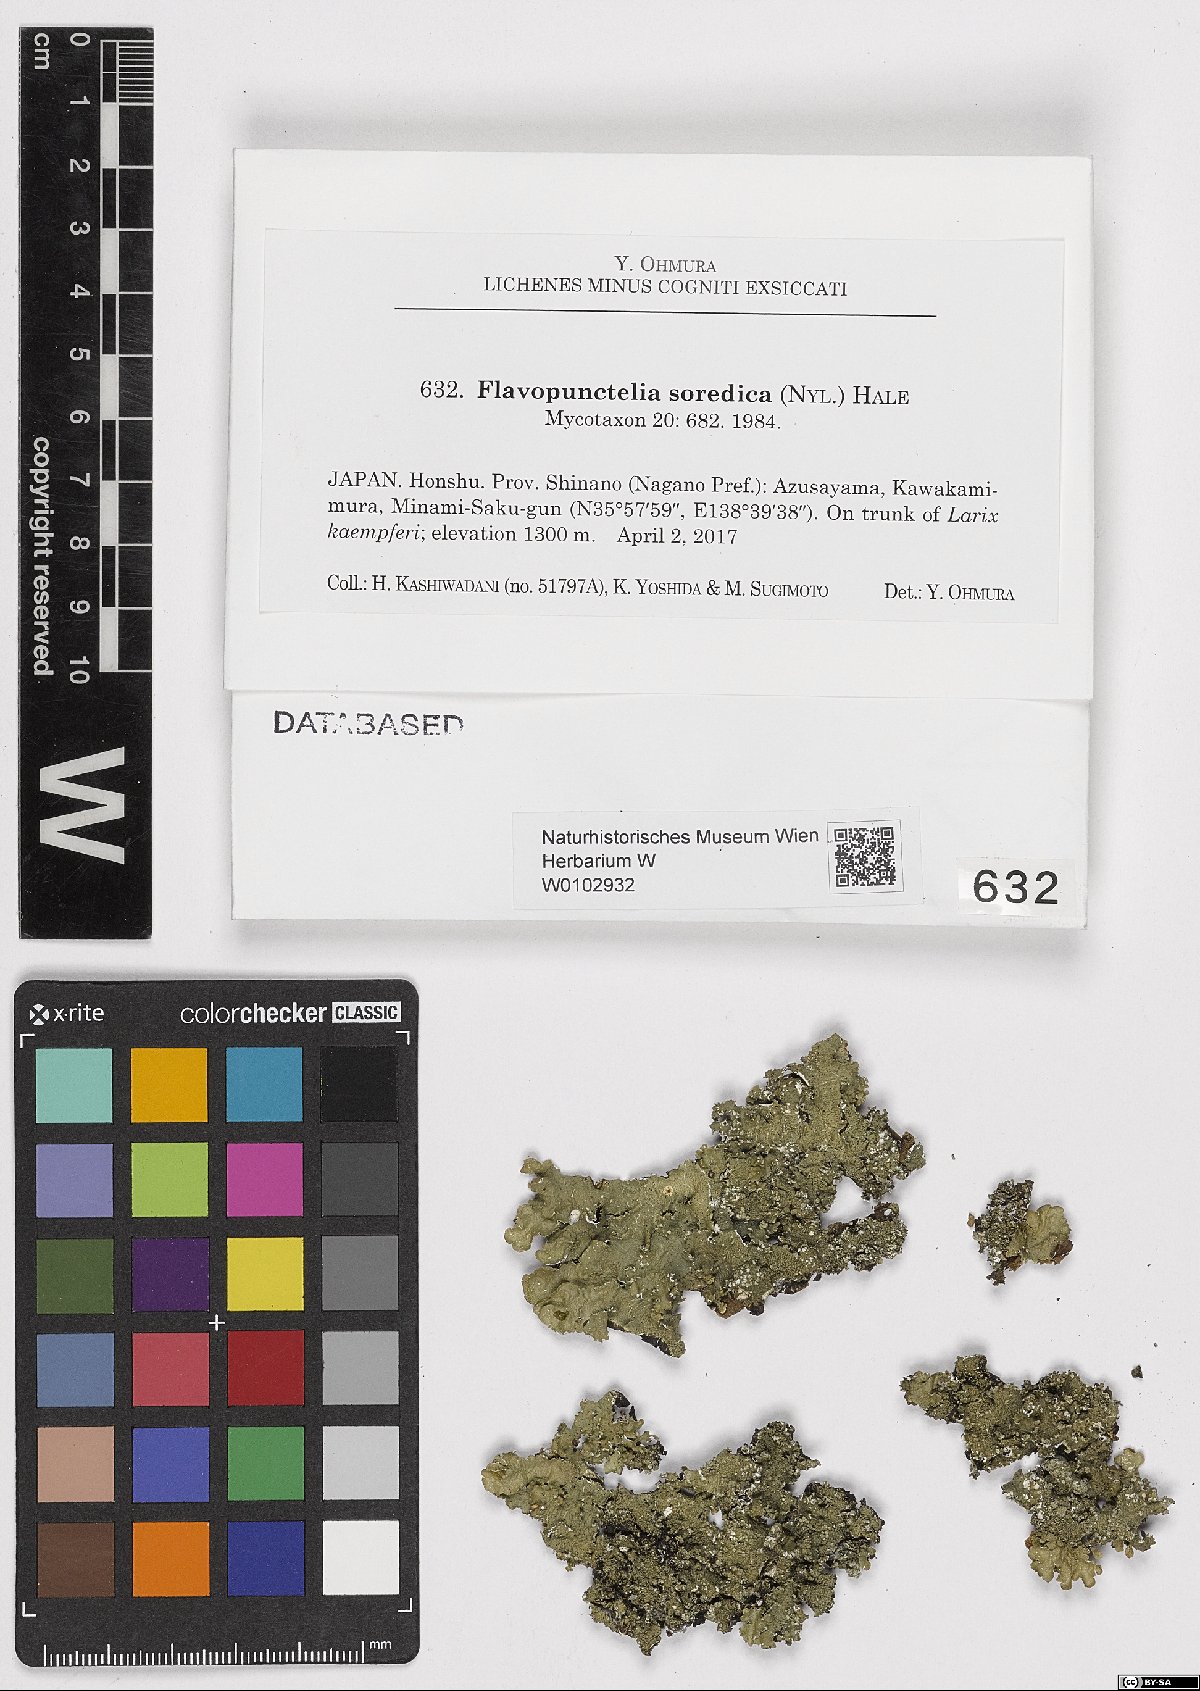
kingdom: Fungi
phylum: Ascomycota
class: Lecanoromycetes
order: Lecanorales
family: Parmeliaceae
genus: Flavopunctelia
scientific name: Flavopunctelia soredica
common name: Powder-edged speckled greenshield
